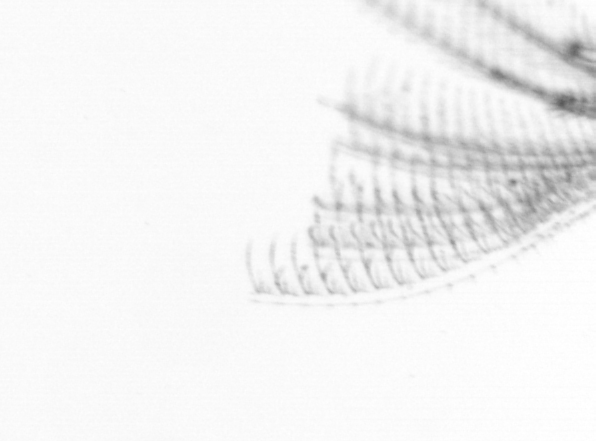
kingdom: Animalia
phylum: Arthropoda
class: Maxillopoda
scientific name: Maxillopoda
